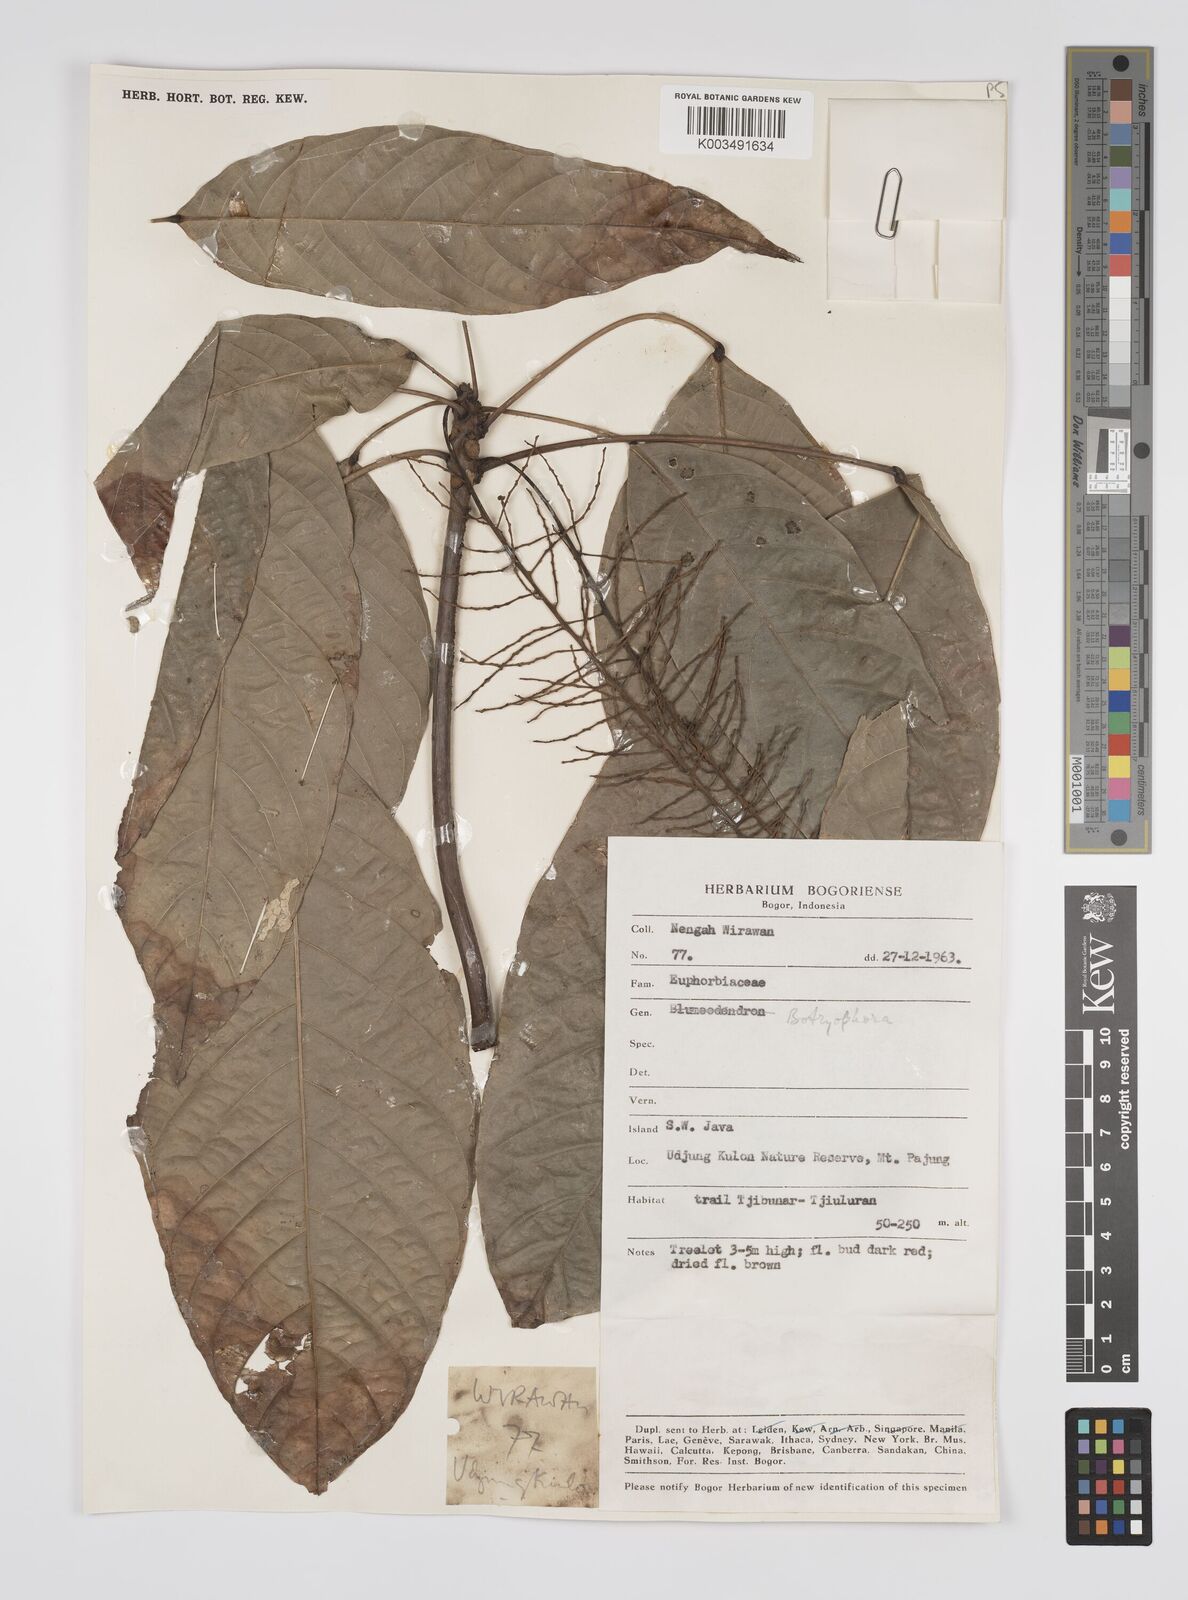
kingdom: Plantae
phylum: Tracheophyta
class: Magnoliopsida
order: Malpighiales
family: Euphorbiaceae
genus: Botryophora
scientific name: Botryophora geniculata
